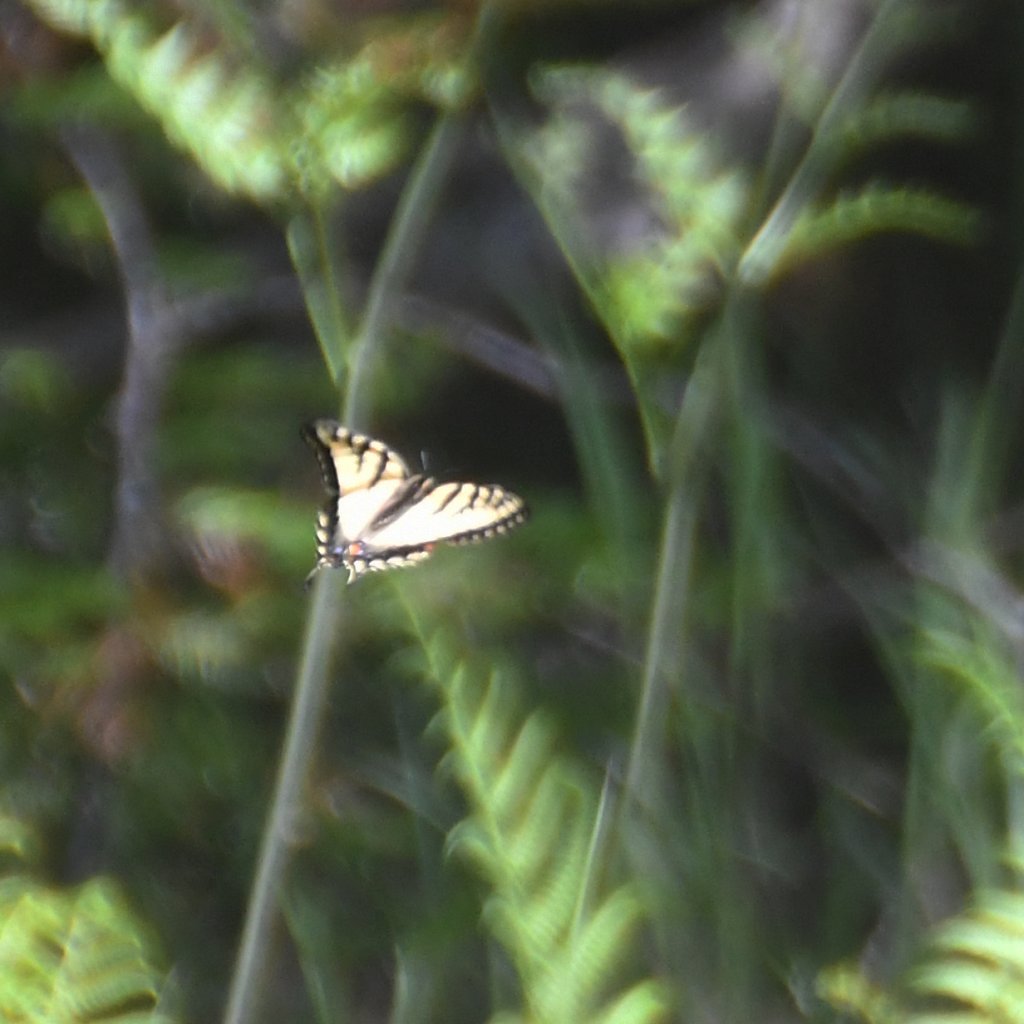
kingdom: Animalia
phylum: Arthropoda
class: Insecta
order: Lepidoptera
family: Papilionidae
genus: Pterourus
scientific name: Pterourus canadensis
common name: Canadian Tiger Swallowtail
